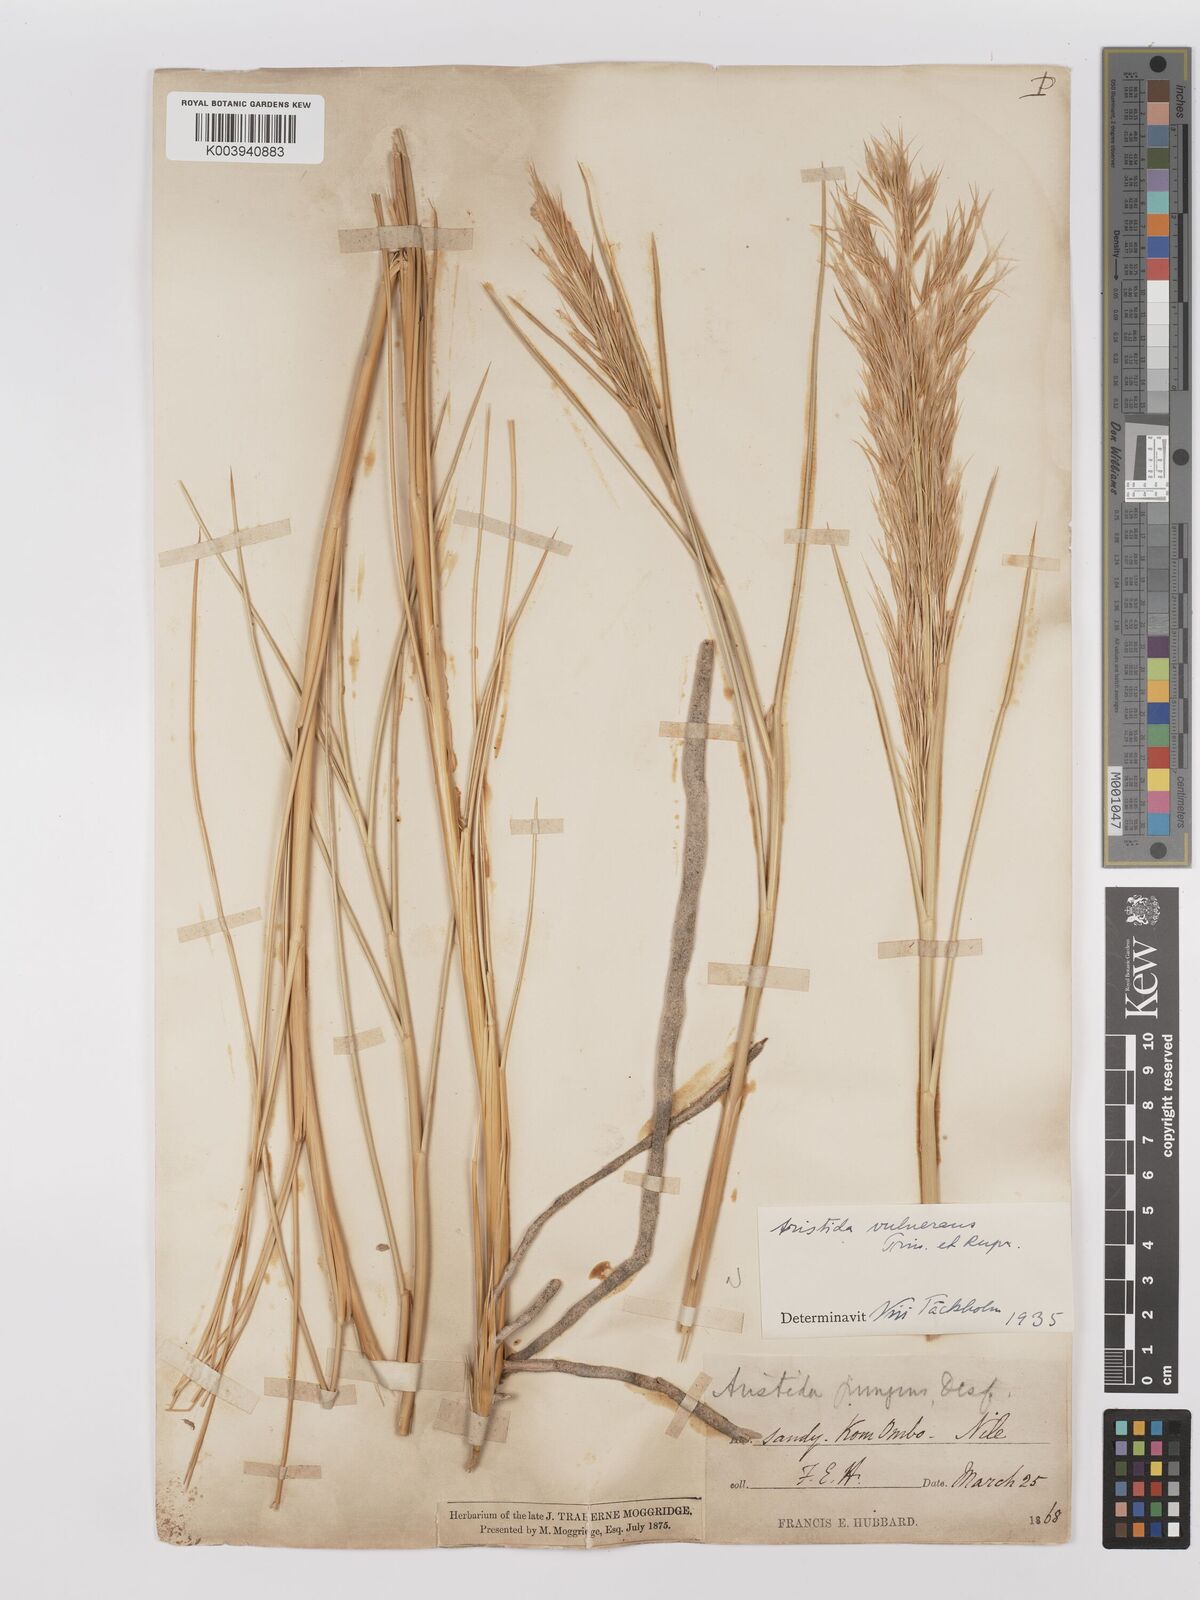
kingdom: Plantae
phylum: Tracheophyta
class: Liliopsida
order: Poales
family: Poaceae
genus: Stipagrostis
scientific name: Stipagrostis vulnerans
